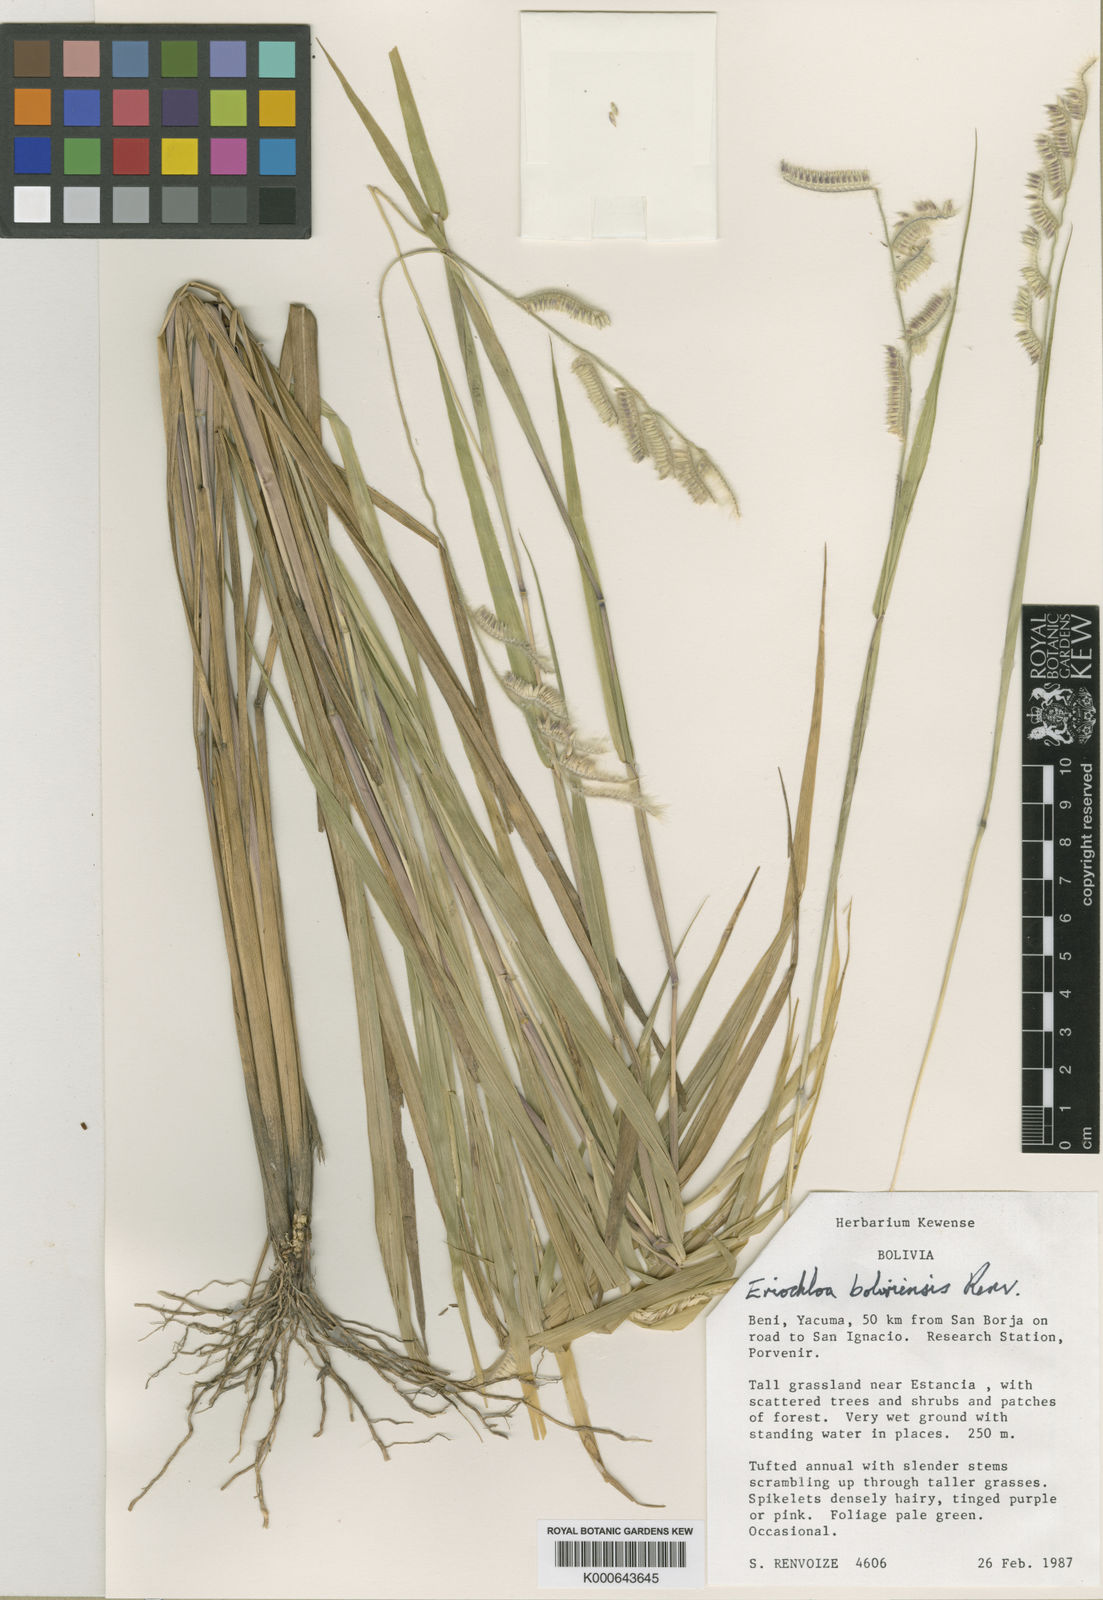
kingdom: Plantae
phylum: Tracheophyta
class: Liliopsida
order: Poales
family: Poaceae
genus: Eriochloa
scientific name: Eriochloa boliviensis
